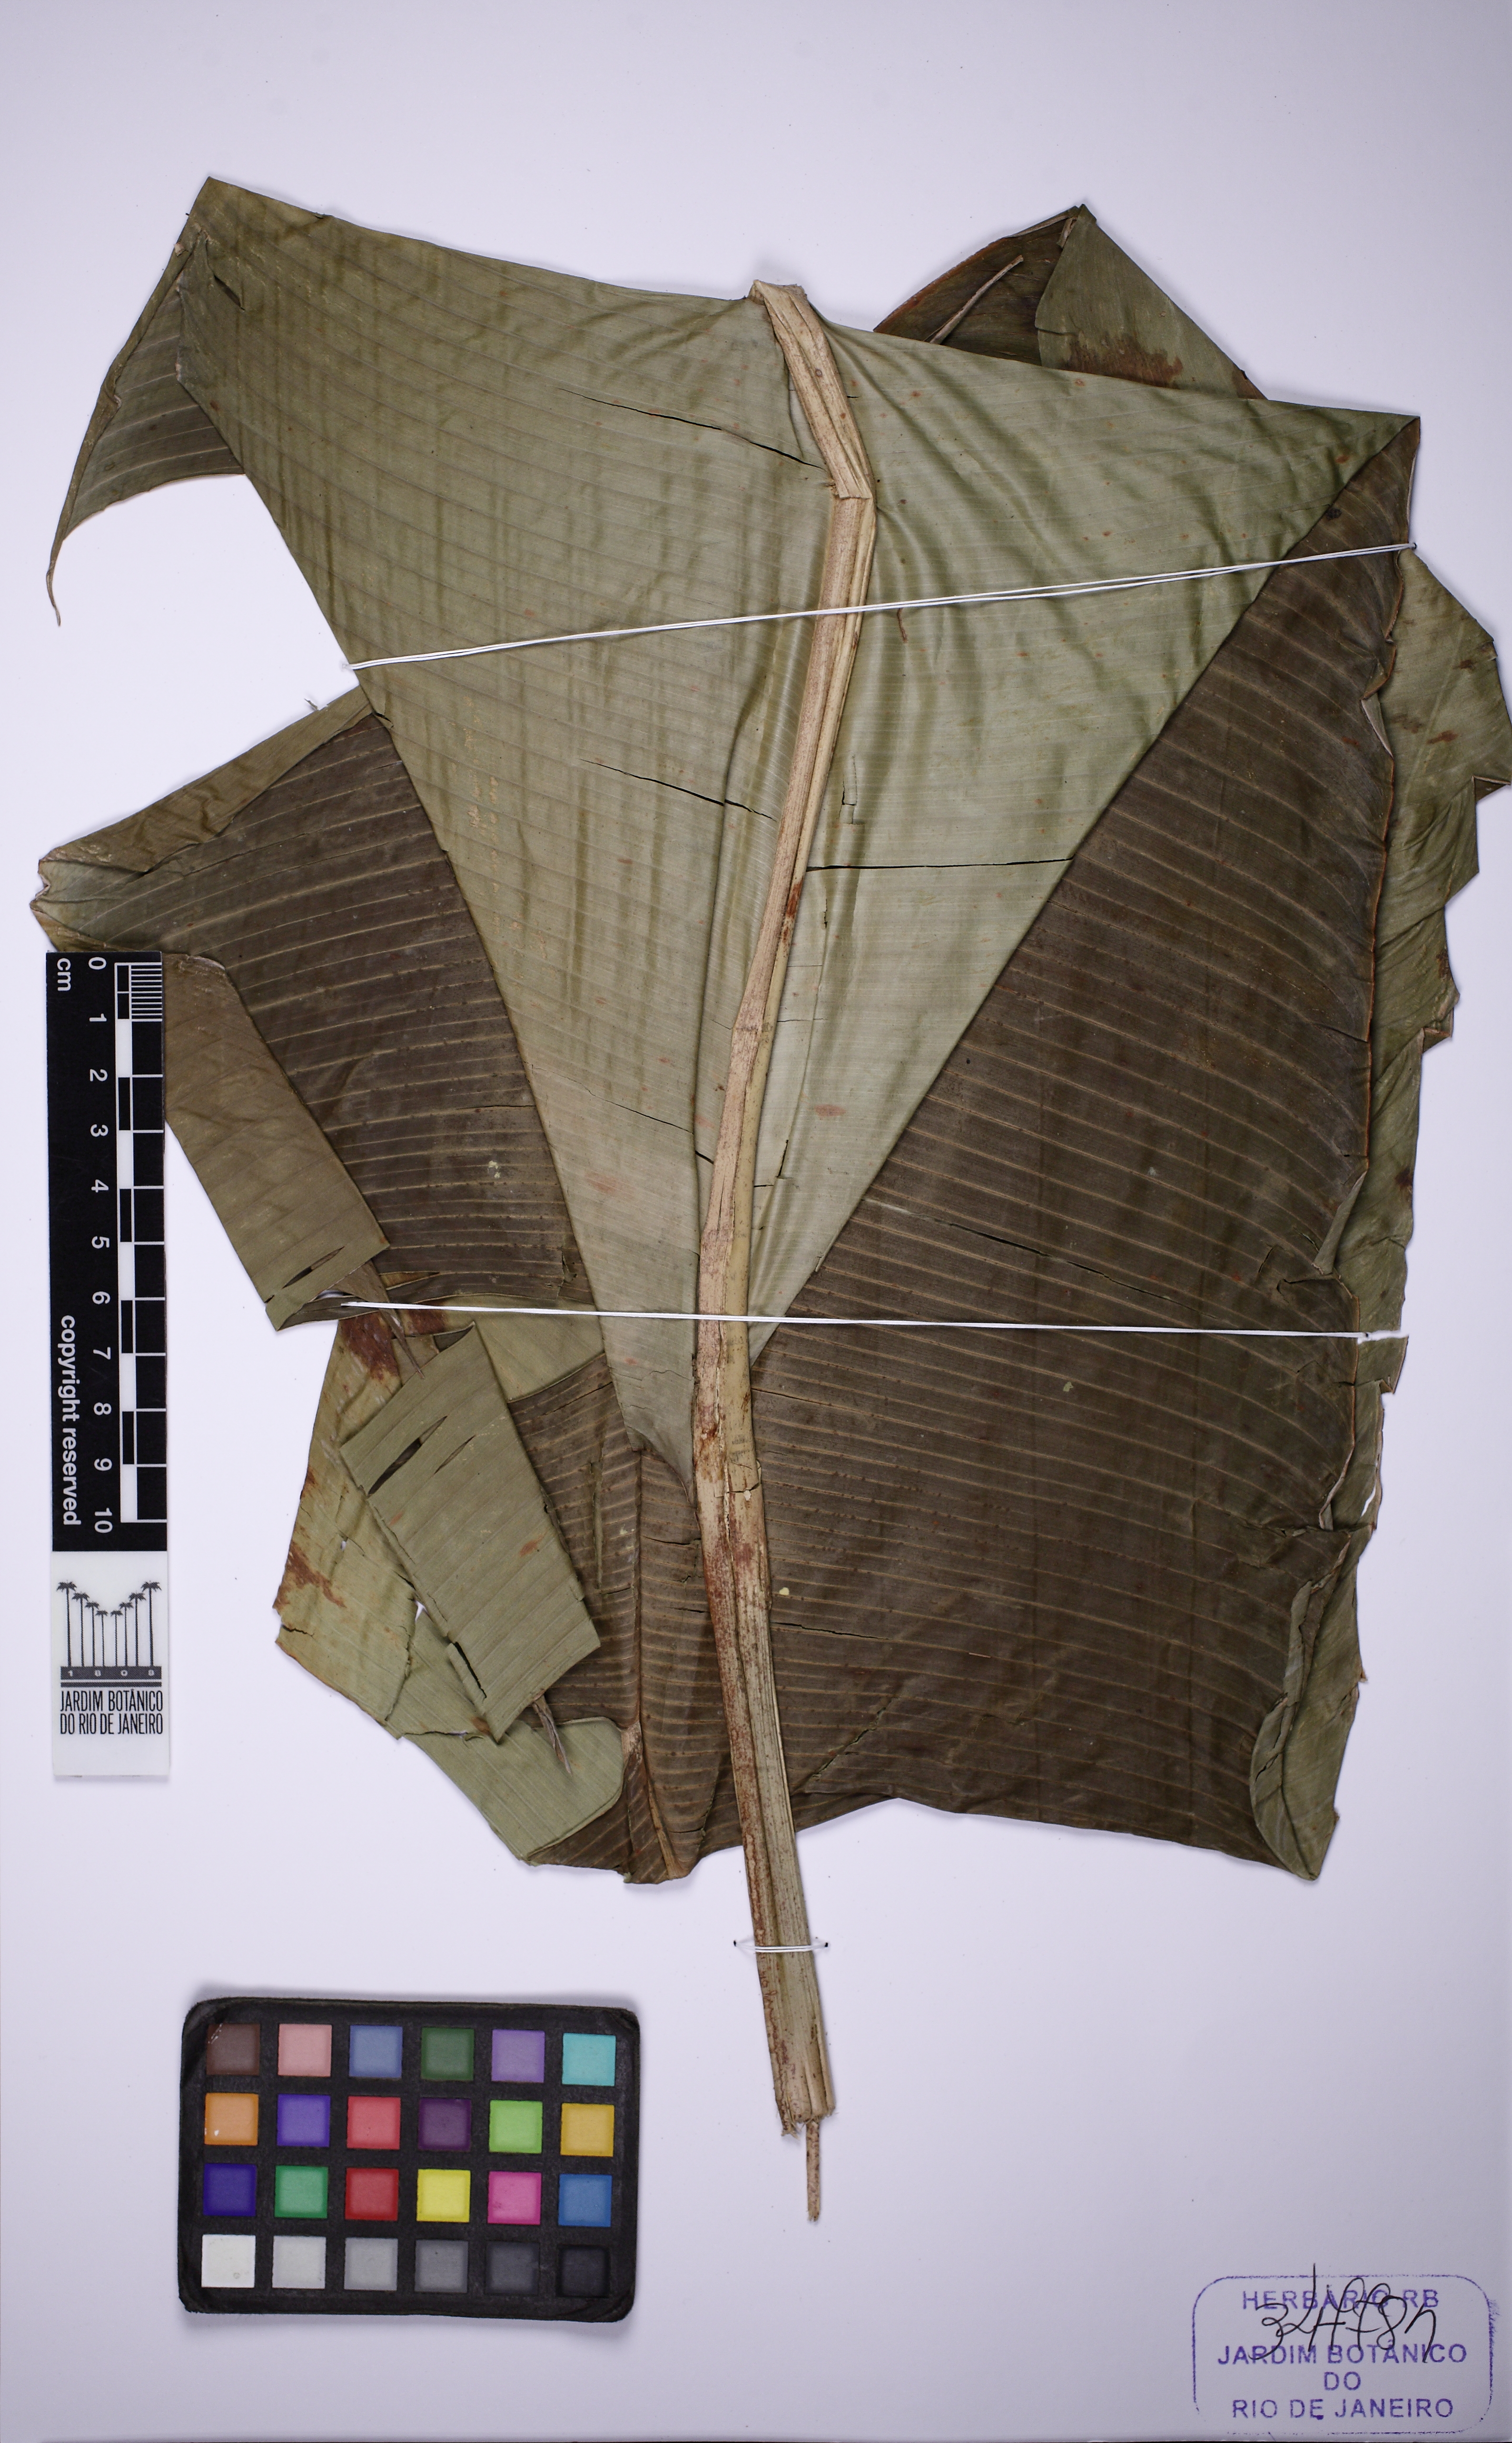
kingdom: Plantae
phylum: Tracheophyta
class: Liliopsida
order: Zingiberales
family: Heliconiaceae
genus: Heliconia
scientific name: Heliconia spathocircinata
